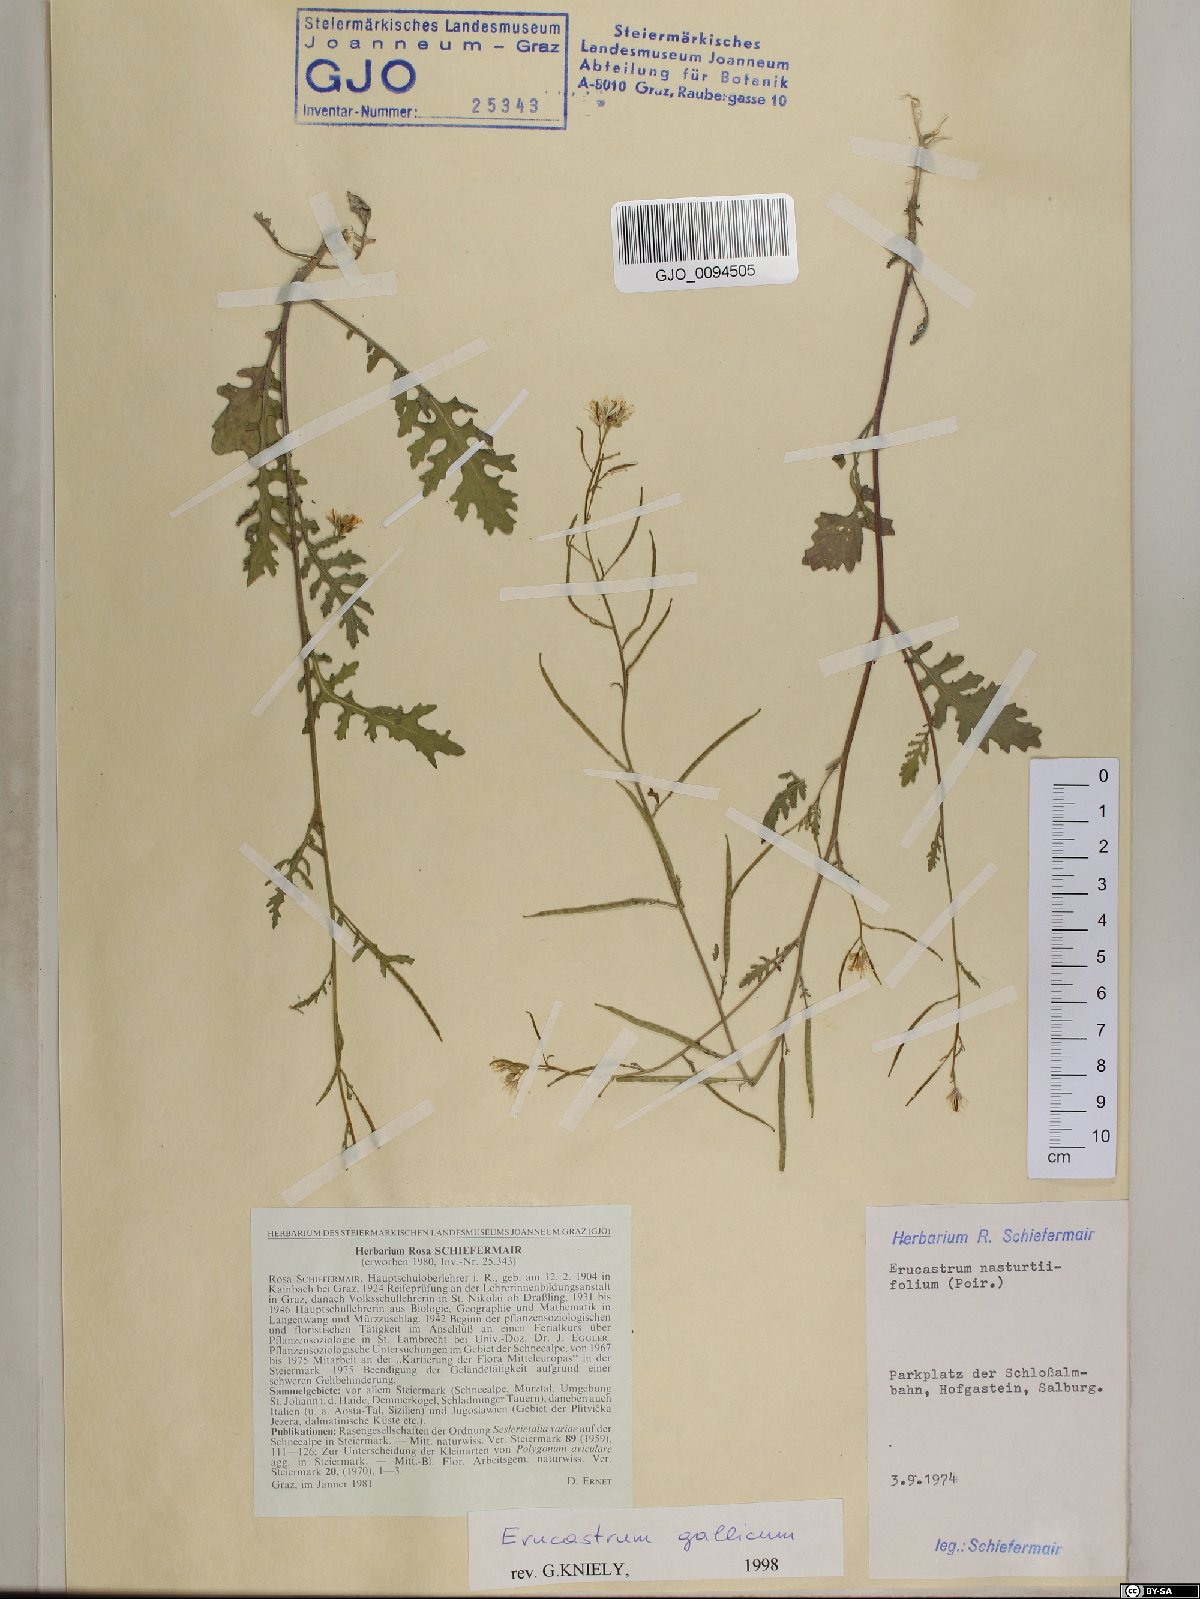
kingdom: Plantae
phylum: Tracheophyta
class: Magnoliopsida
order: Brassicales
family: Brassicaceae
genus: Erucastrum
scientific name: Erucastrum gallicum
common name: Hairy rocket
